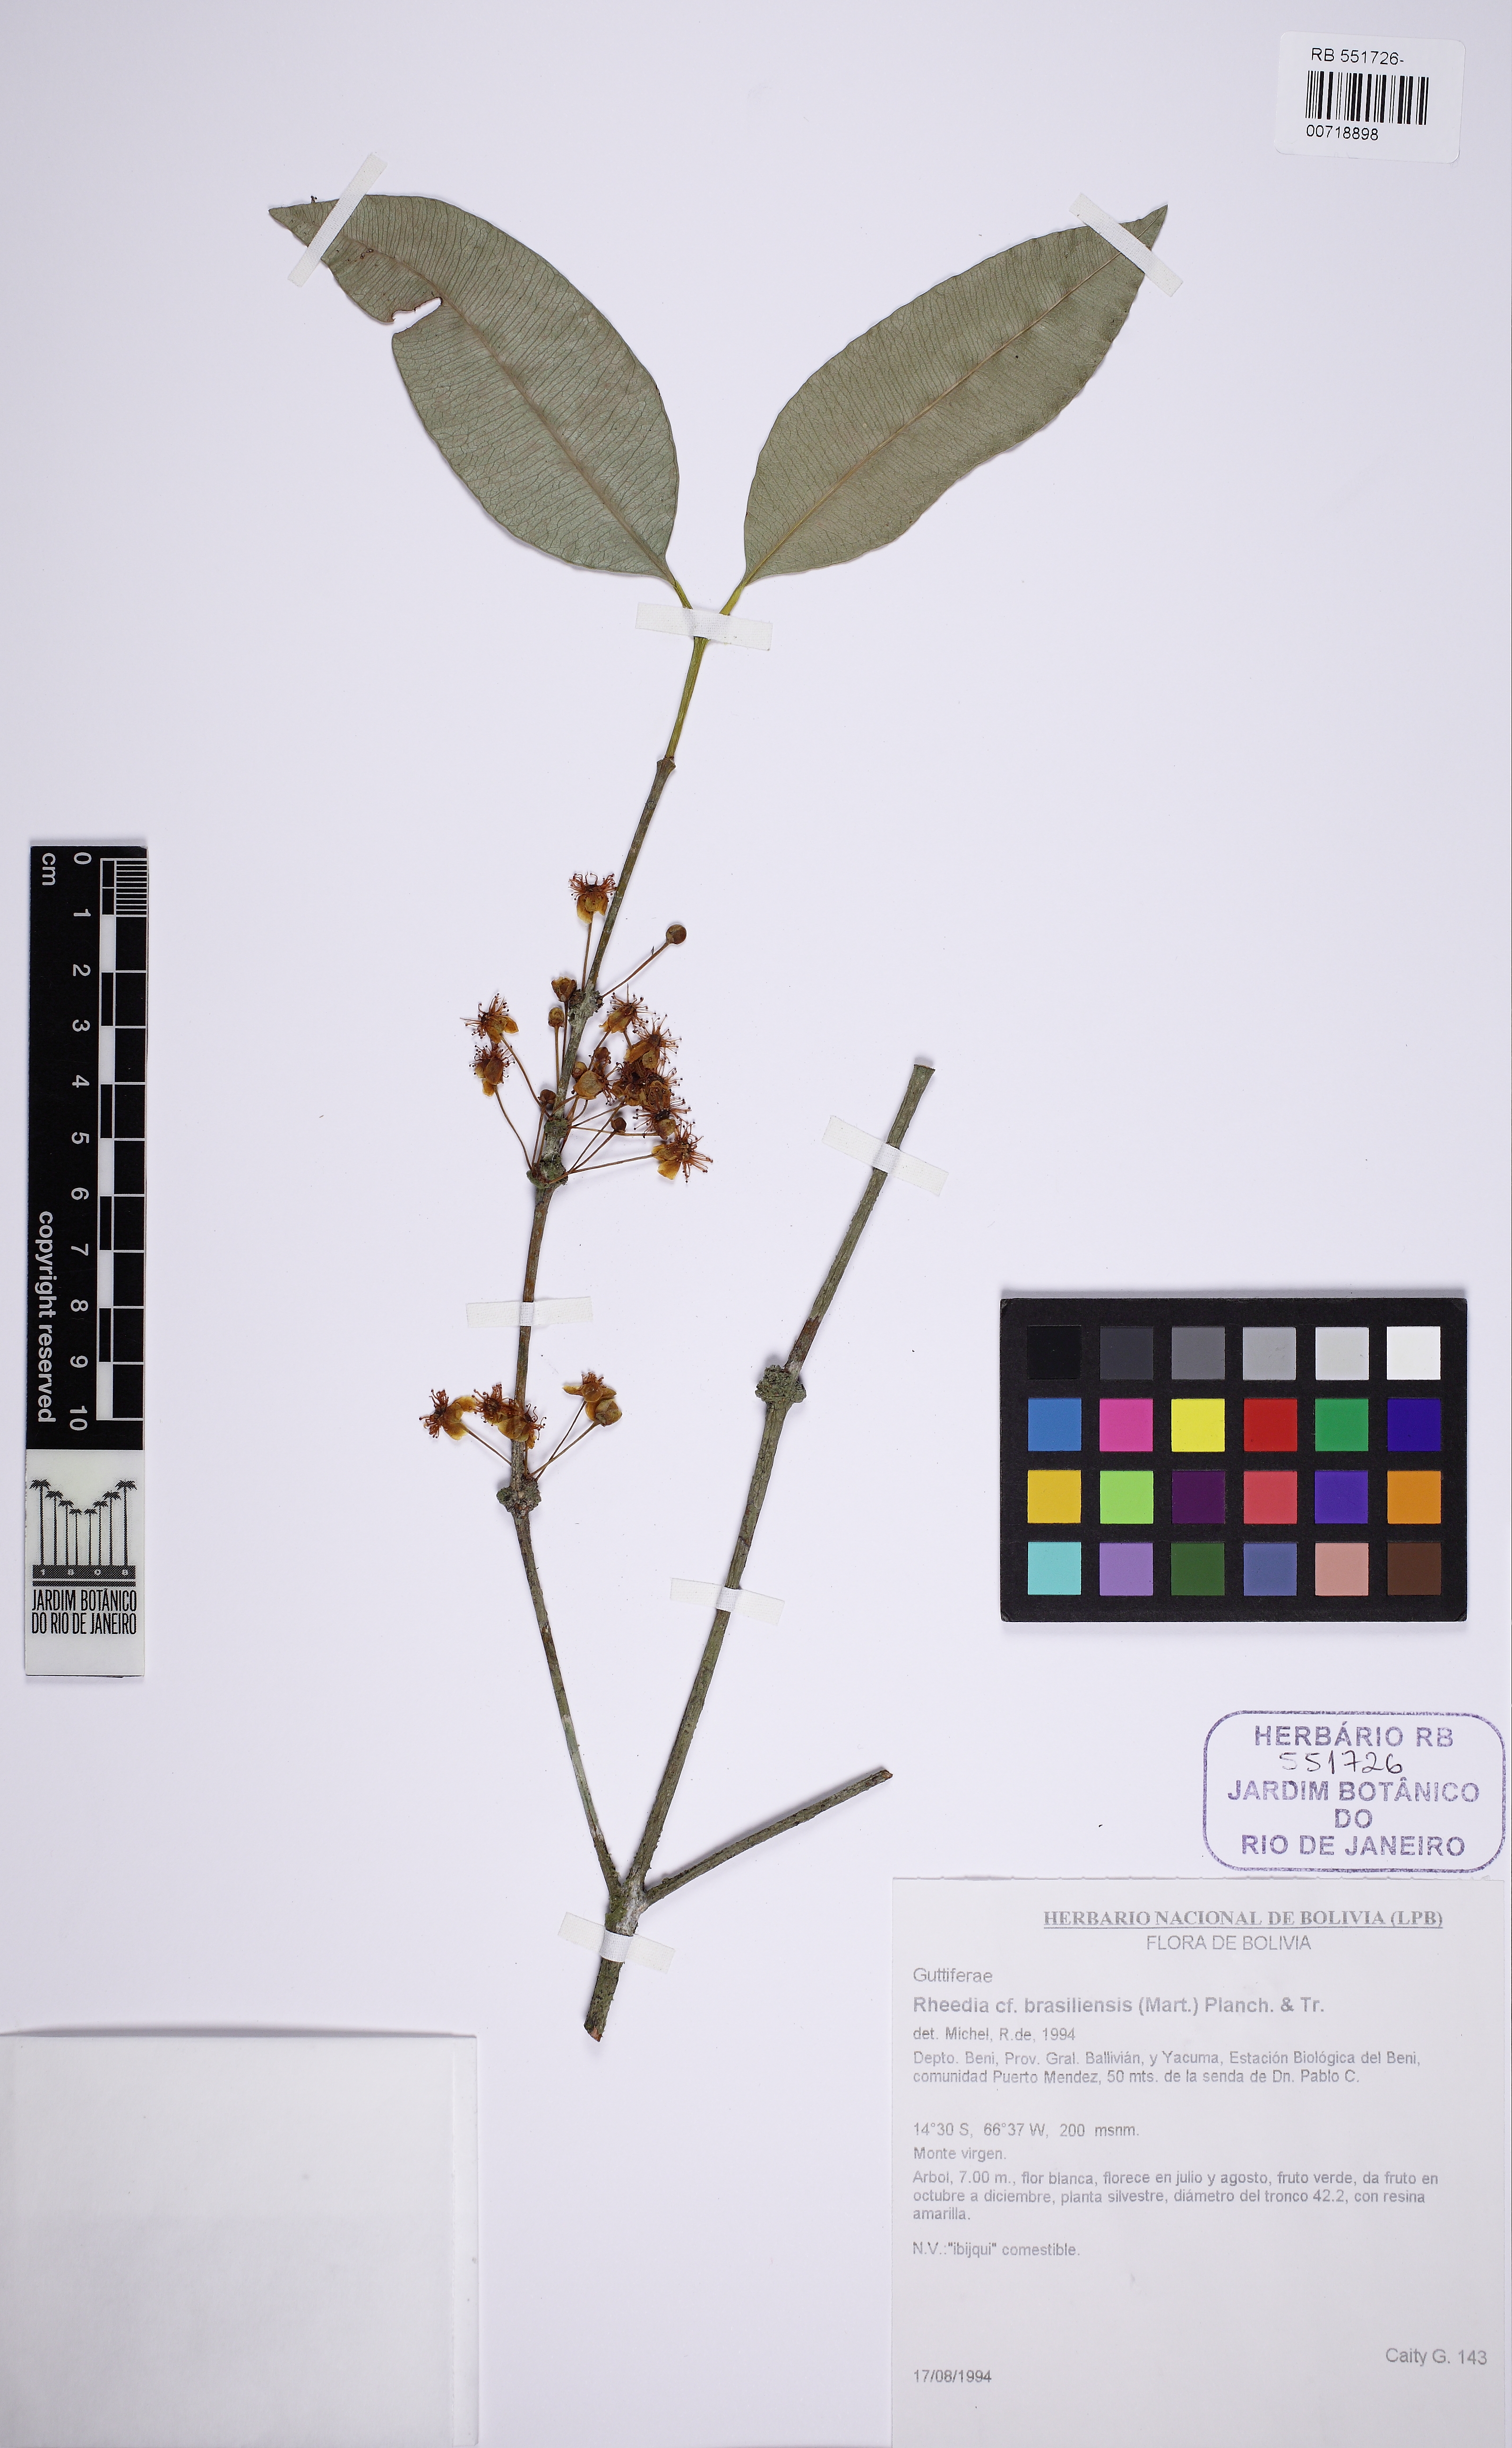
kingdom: Plantae
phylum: Tracheophyta
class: Magnoliopsida
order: Malpighiales
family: Clusiaceae
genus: Garcinia
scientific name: Garcinia brasiliensis
